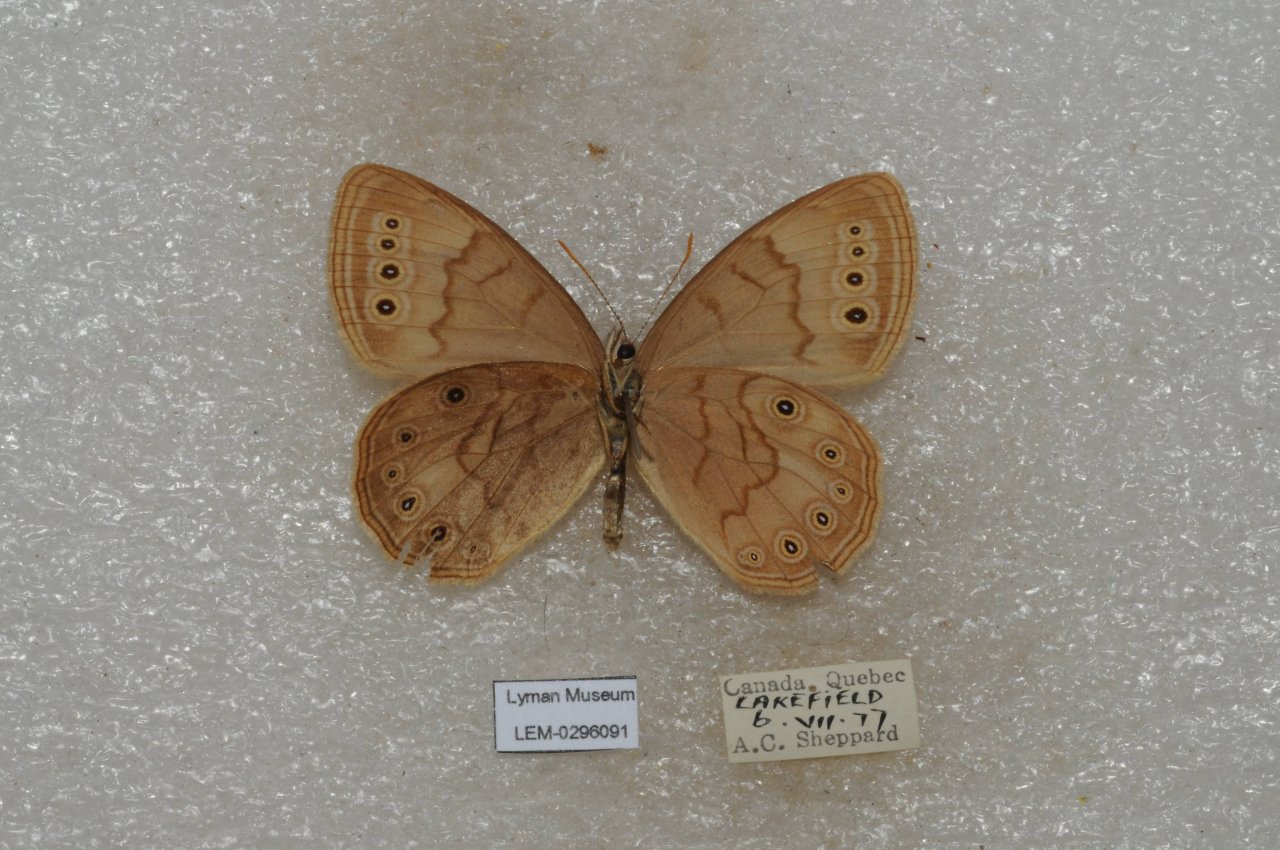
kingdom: Animalia
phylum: Arthropoda
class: Insecta
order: Lepidoptera
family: Nymphalidae
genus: Lethe
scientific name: Lethe eurydice
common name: Eyed Brown
